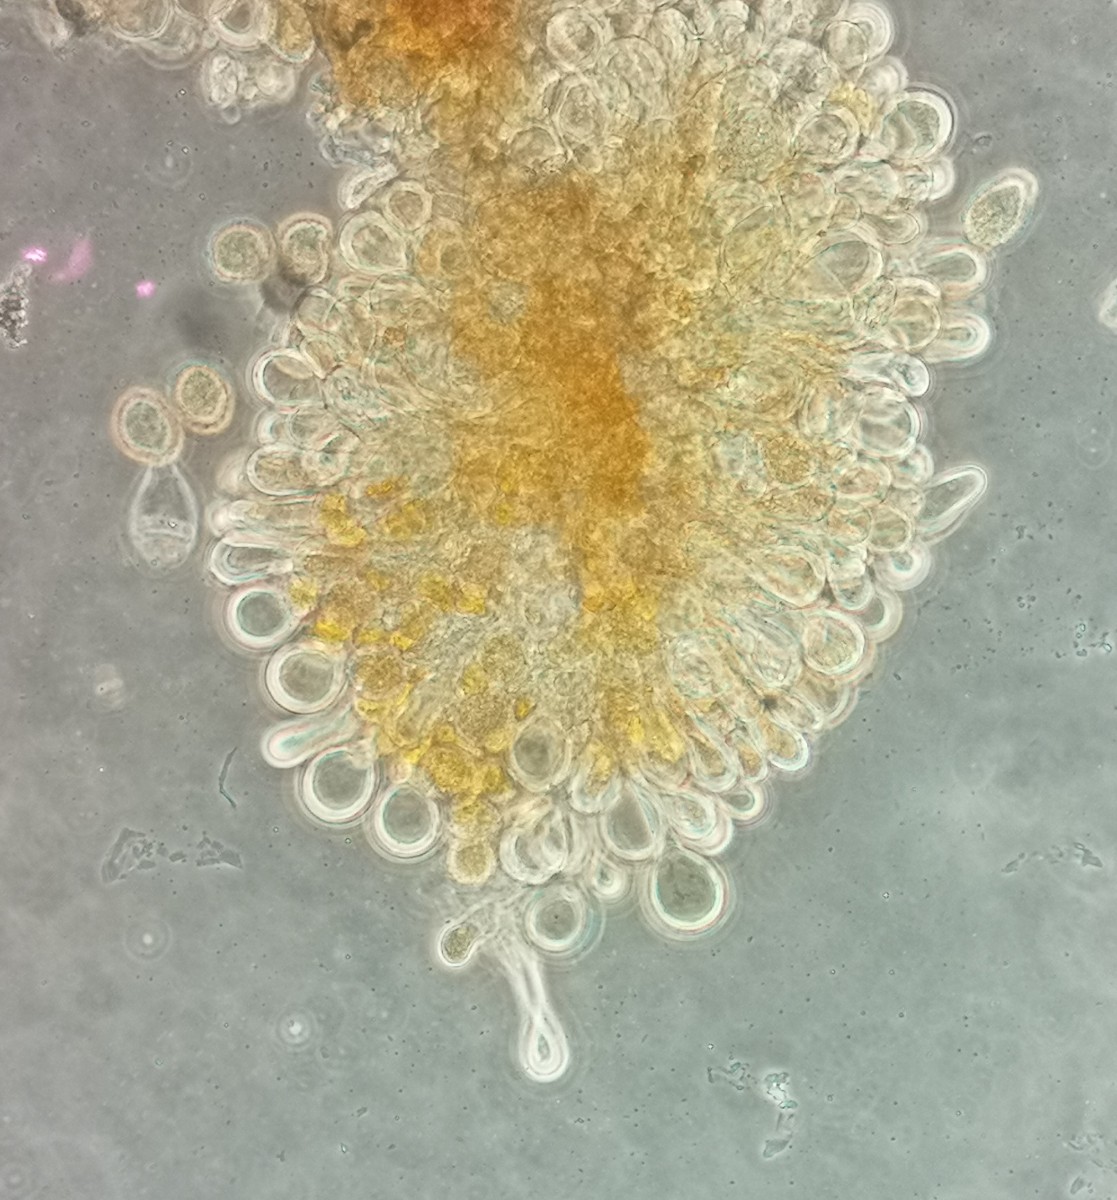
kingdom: Fungi
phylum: Basidiomycota
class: Pucciniomycetes
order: Pucciniales
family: Melampsoraceae
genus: Melampsora
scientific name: Melampsora epitea
